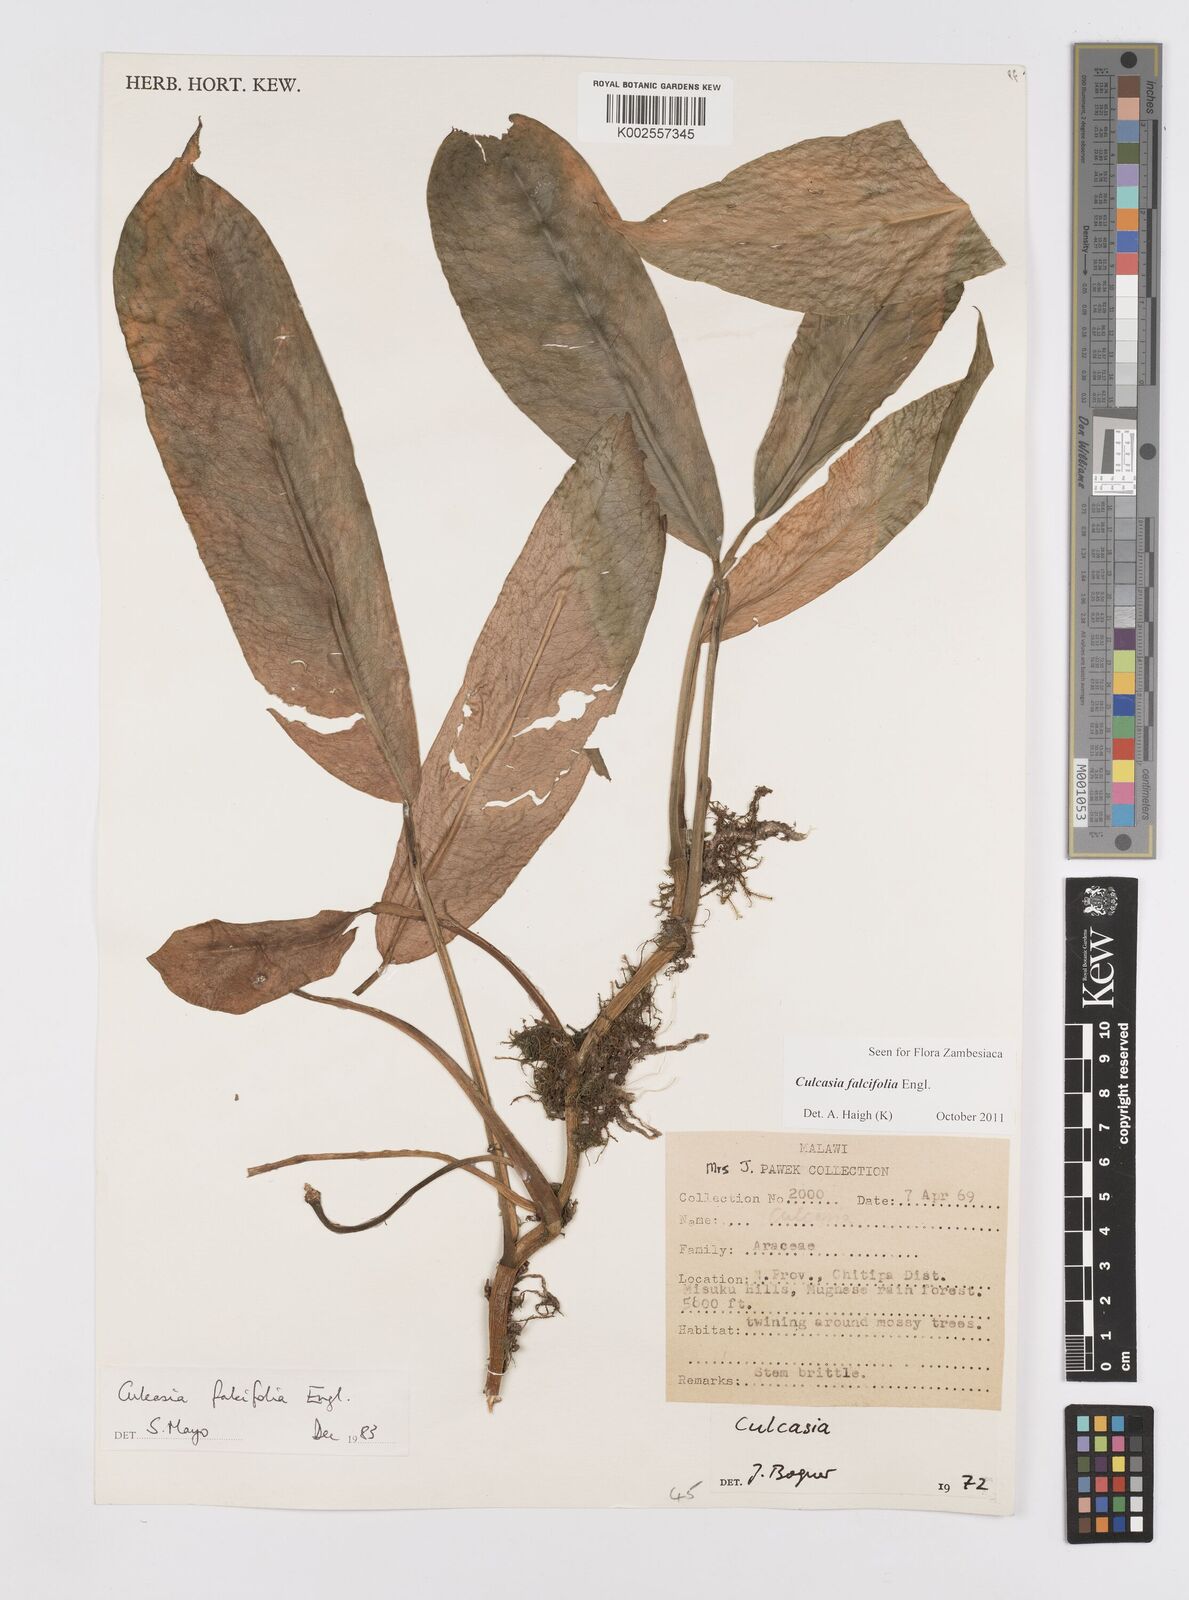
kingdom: Plantae
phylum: Tracheophyta
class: Liliopsida
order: Alismatales
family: Araceae
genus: Culcasia
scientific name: Culcasia falcifolia
